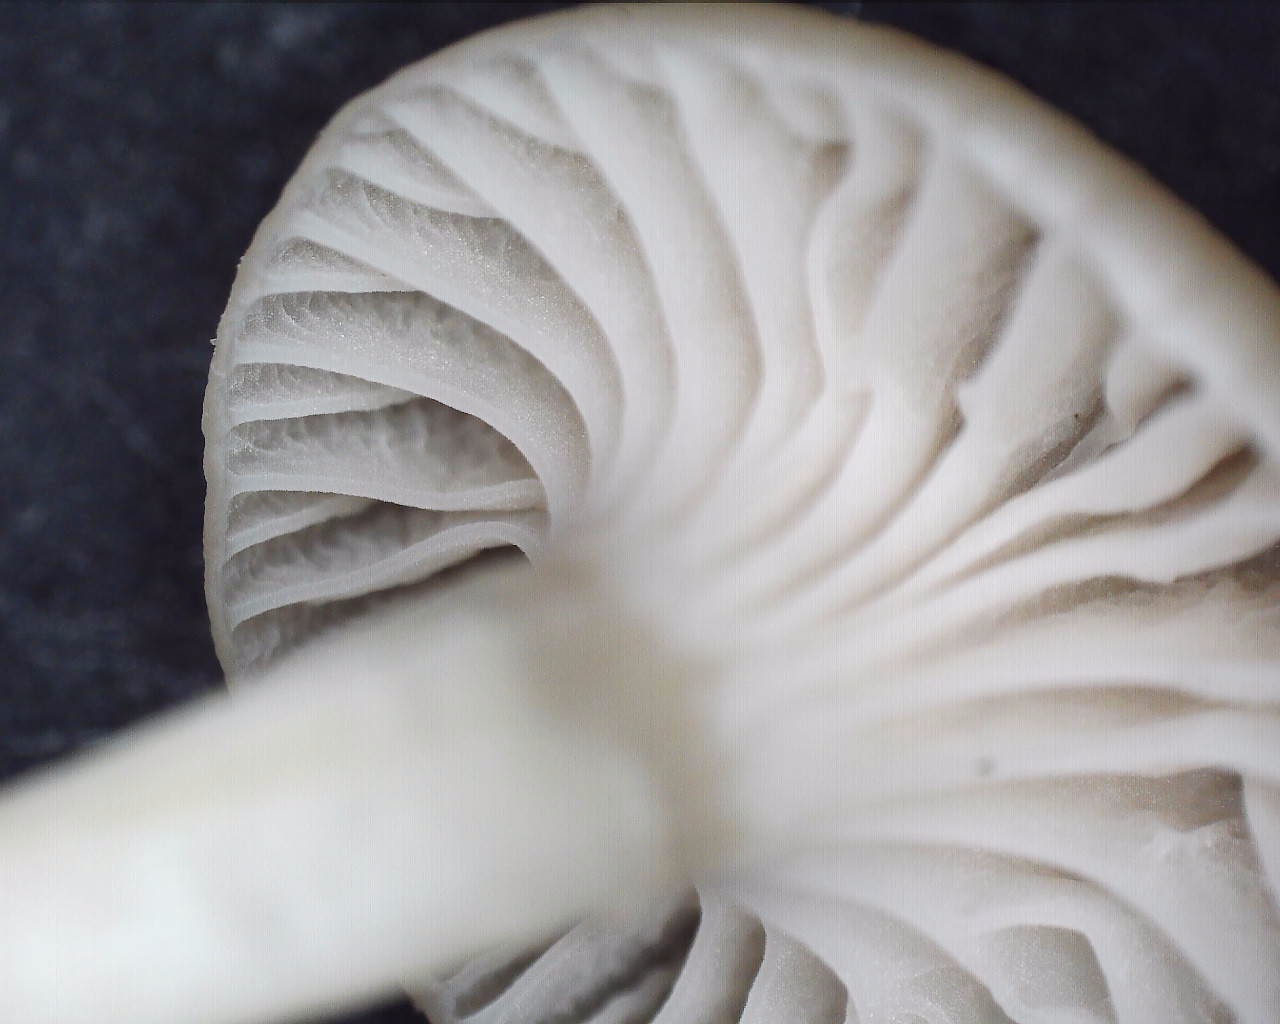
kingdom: Fungi
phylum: Basidiomycota
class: Agaricomycetes
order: Agaricales
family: Hygrophoraceae
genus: Cuphophyllus
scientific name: Cuphophyllus
